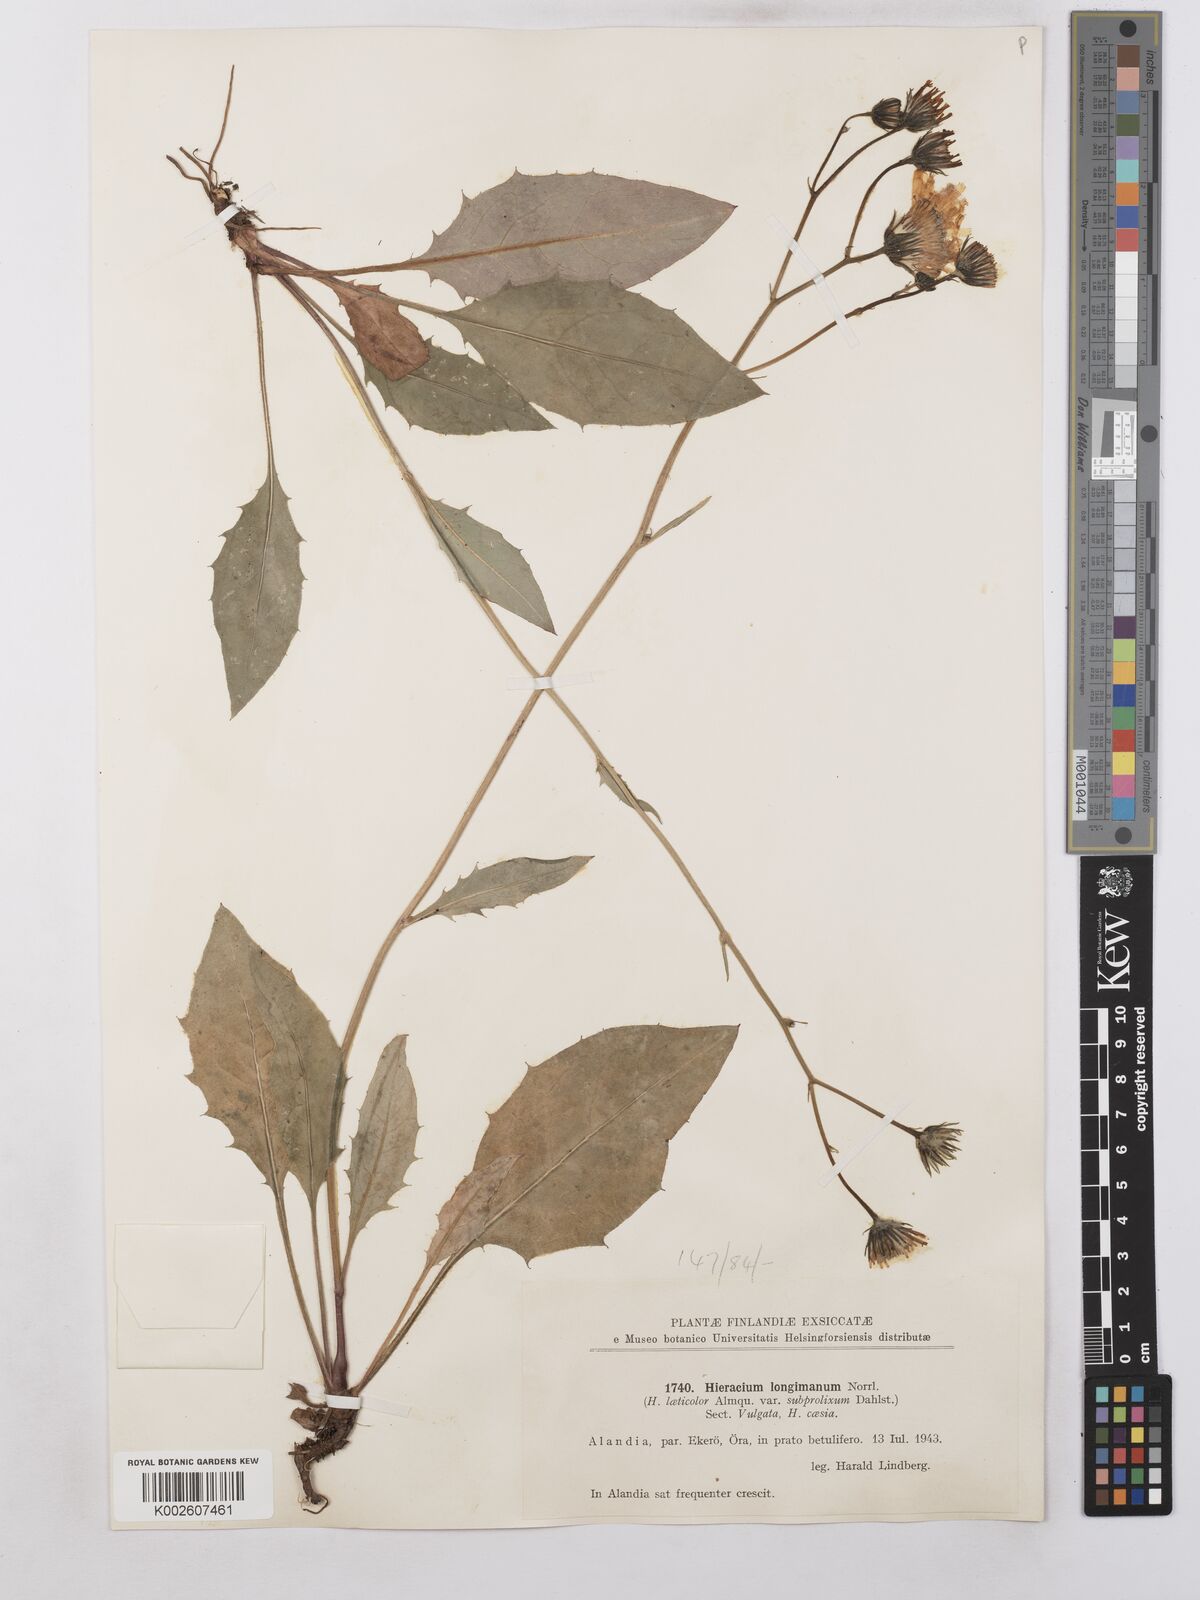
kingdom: Plantae
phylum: Tracheophyta
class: Magnoliopsida
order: Asterales
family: Asteraceae
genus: Hieracium
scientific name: Hieracium caesium
